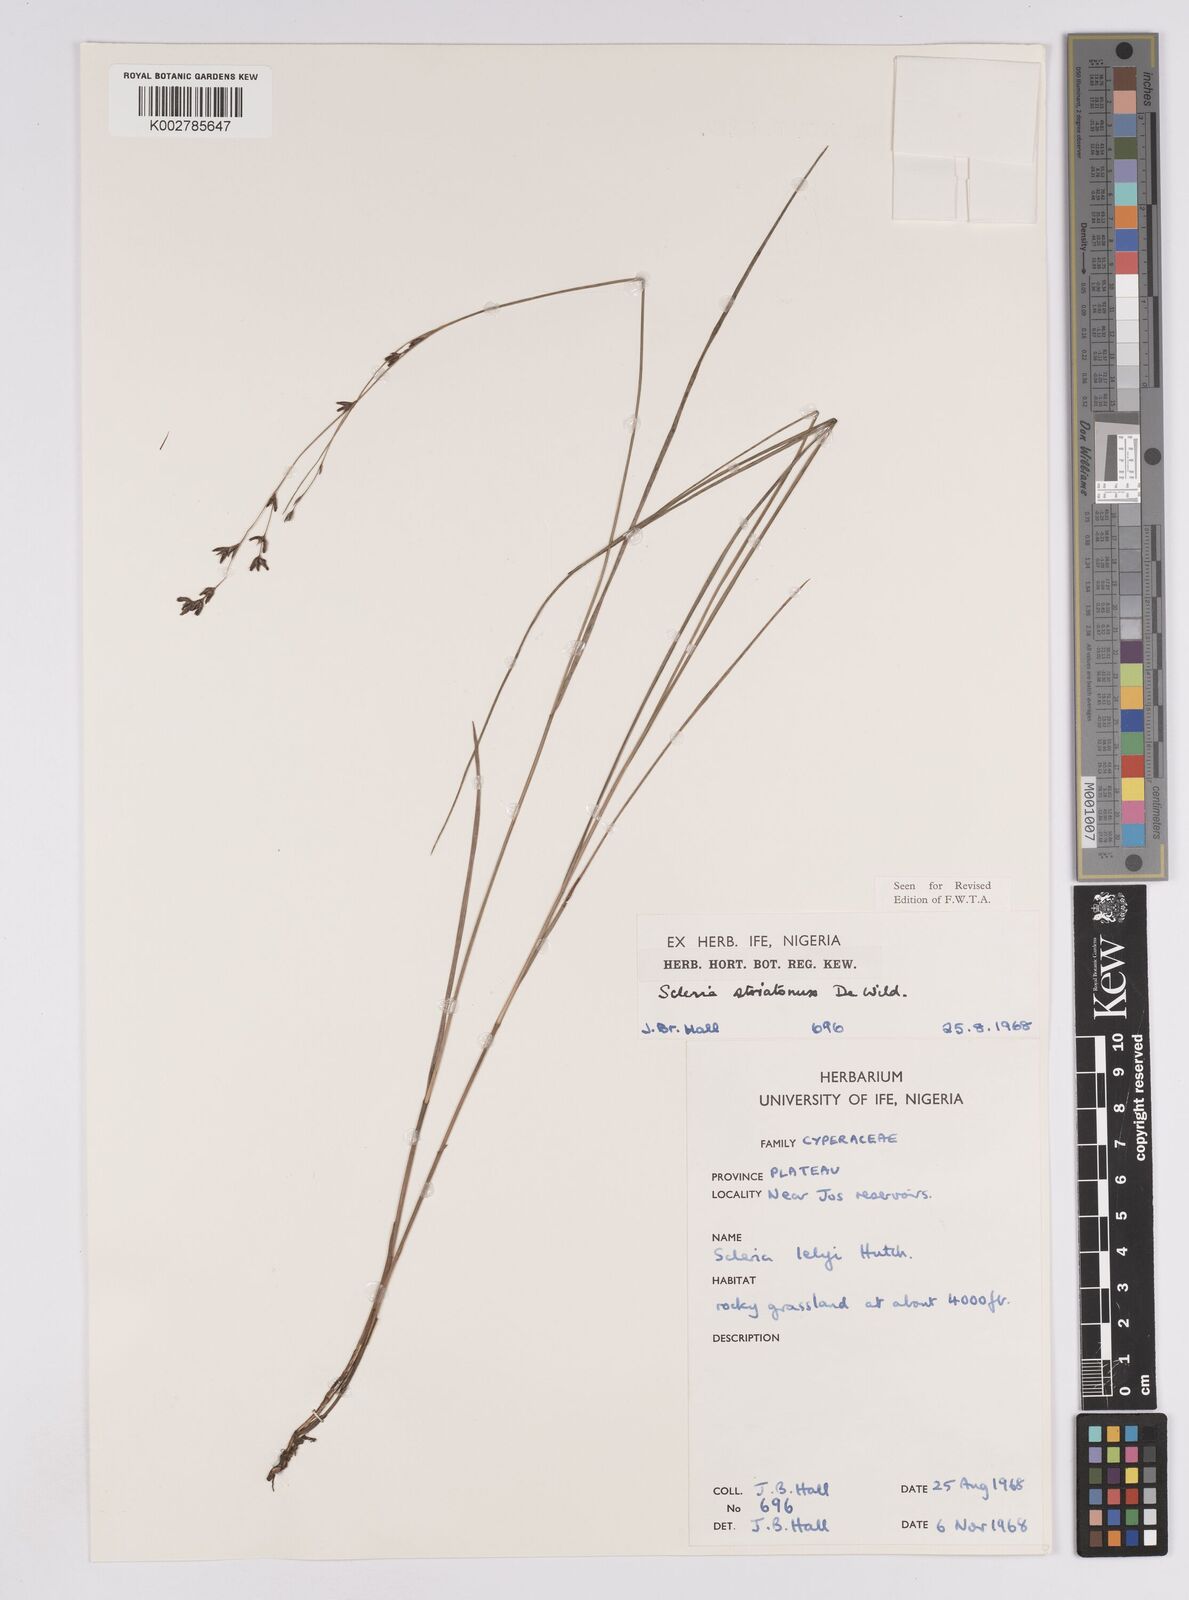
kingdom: Plantae
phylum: Tracheophyta
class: Liliopsida
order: Poales
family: Cyperaceae
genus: Scleria
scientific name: Scleria woodii
